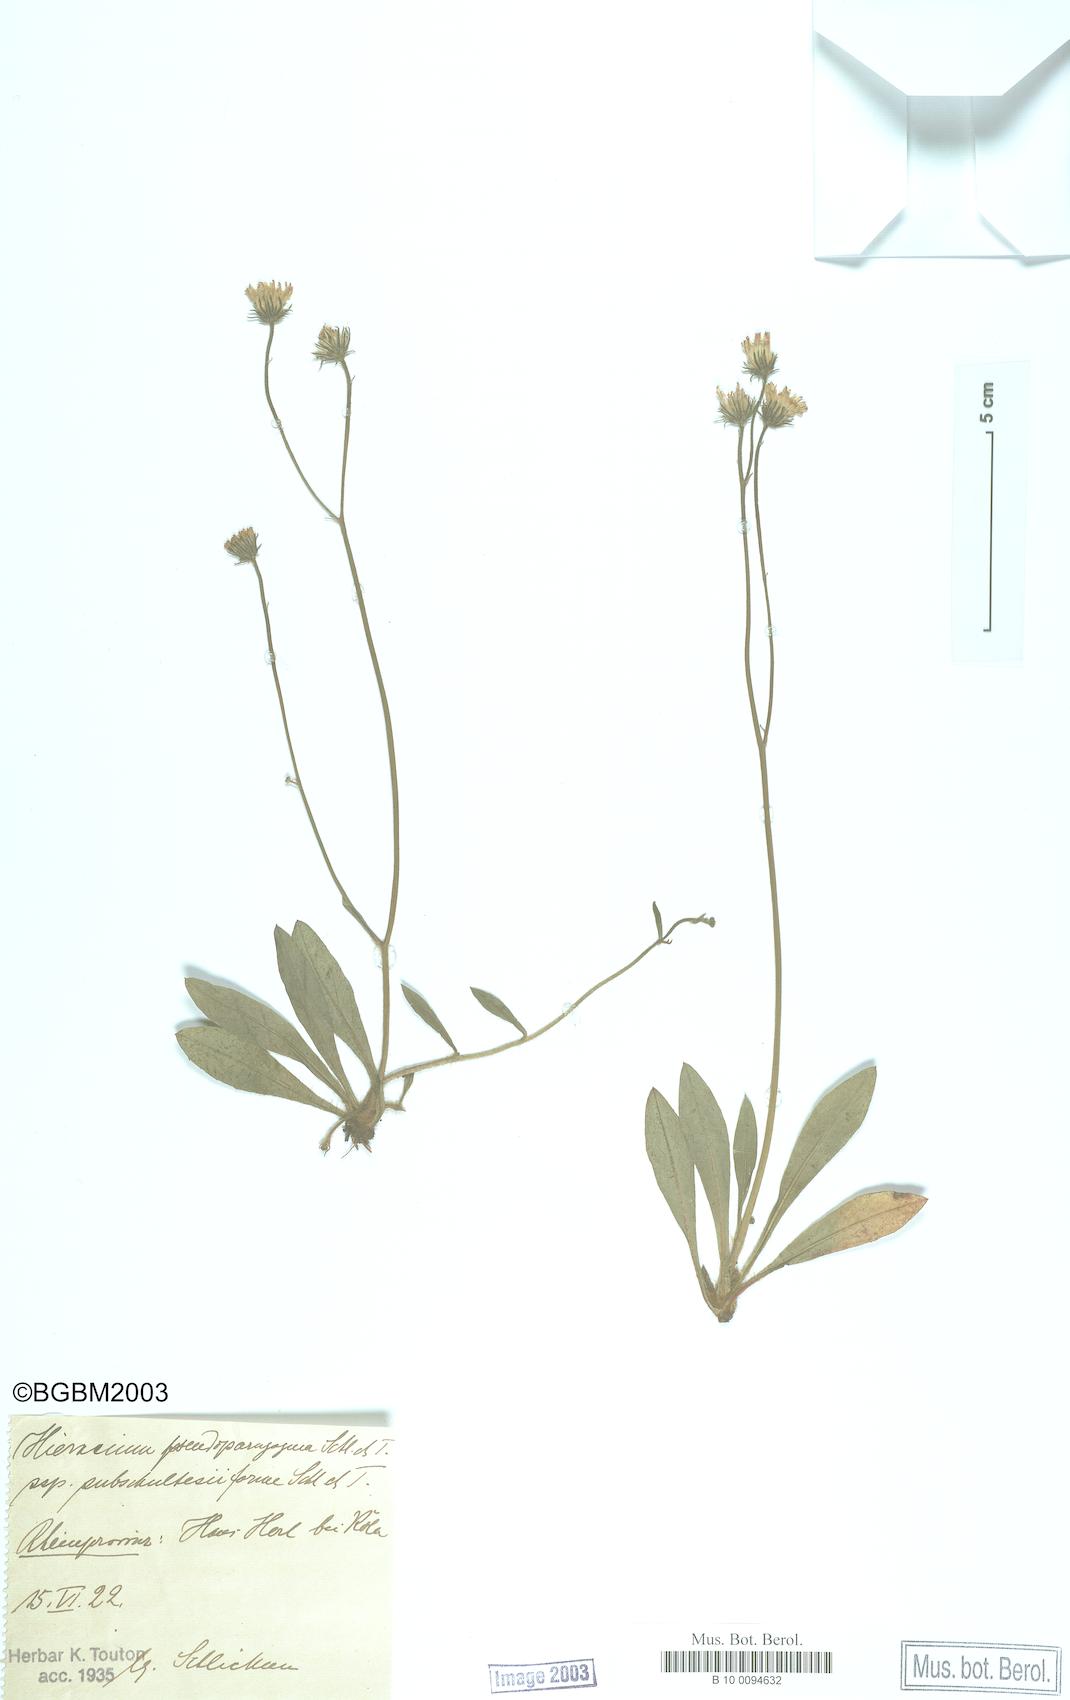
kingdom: Plantae
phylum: Tracheophyta
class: Magnoliopsida
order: Asterales
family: Asteraceae
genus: Pilosella
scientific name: Pilosella pseudoparagoga
